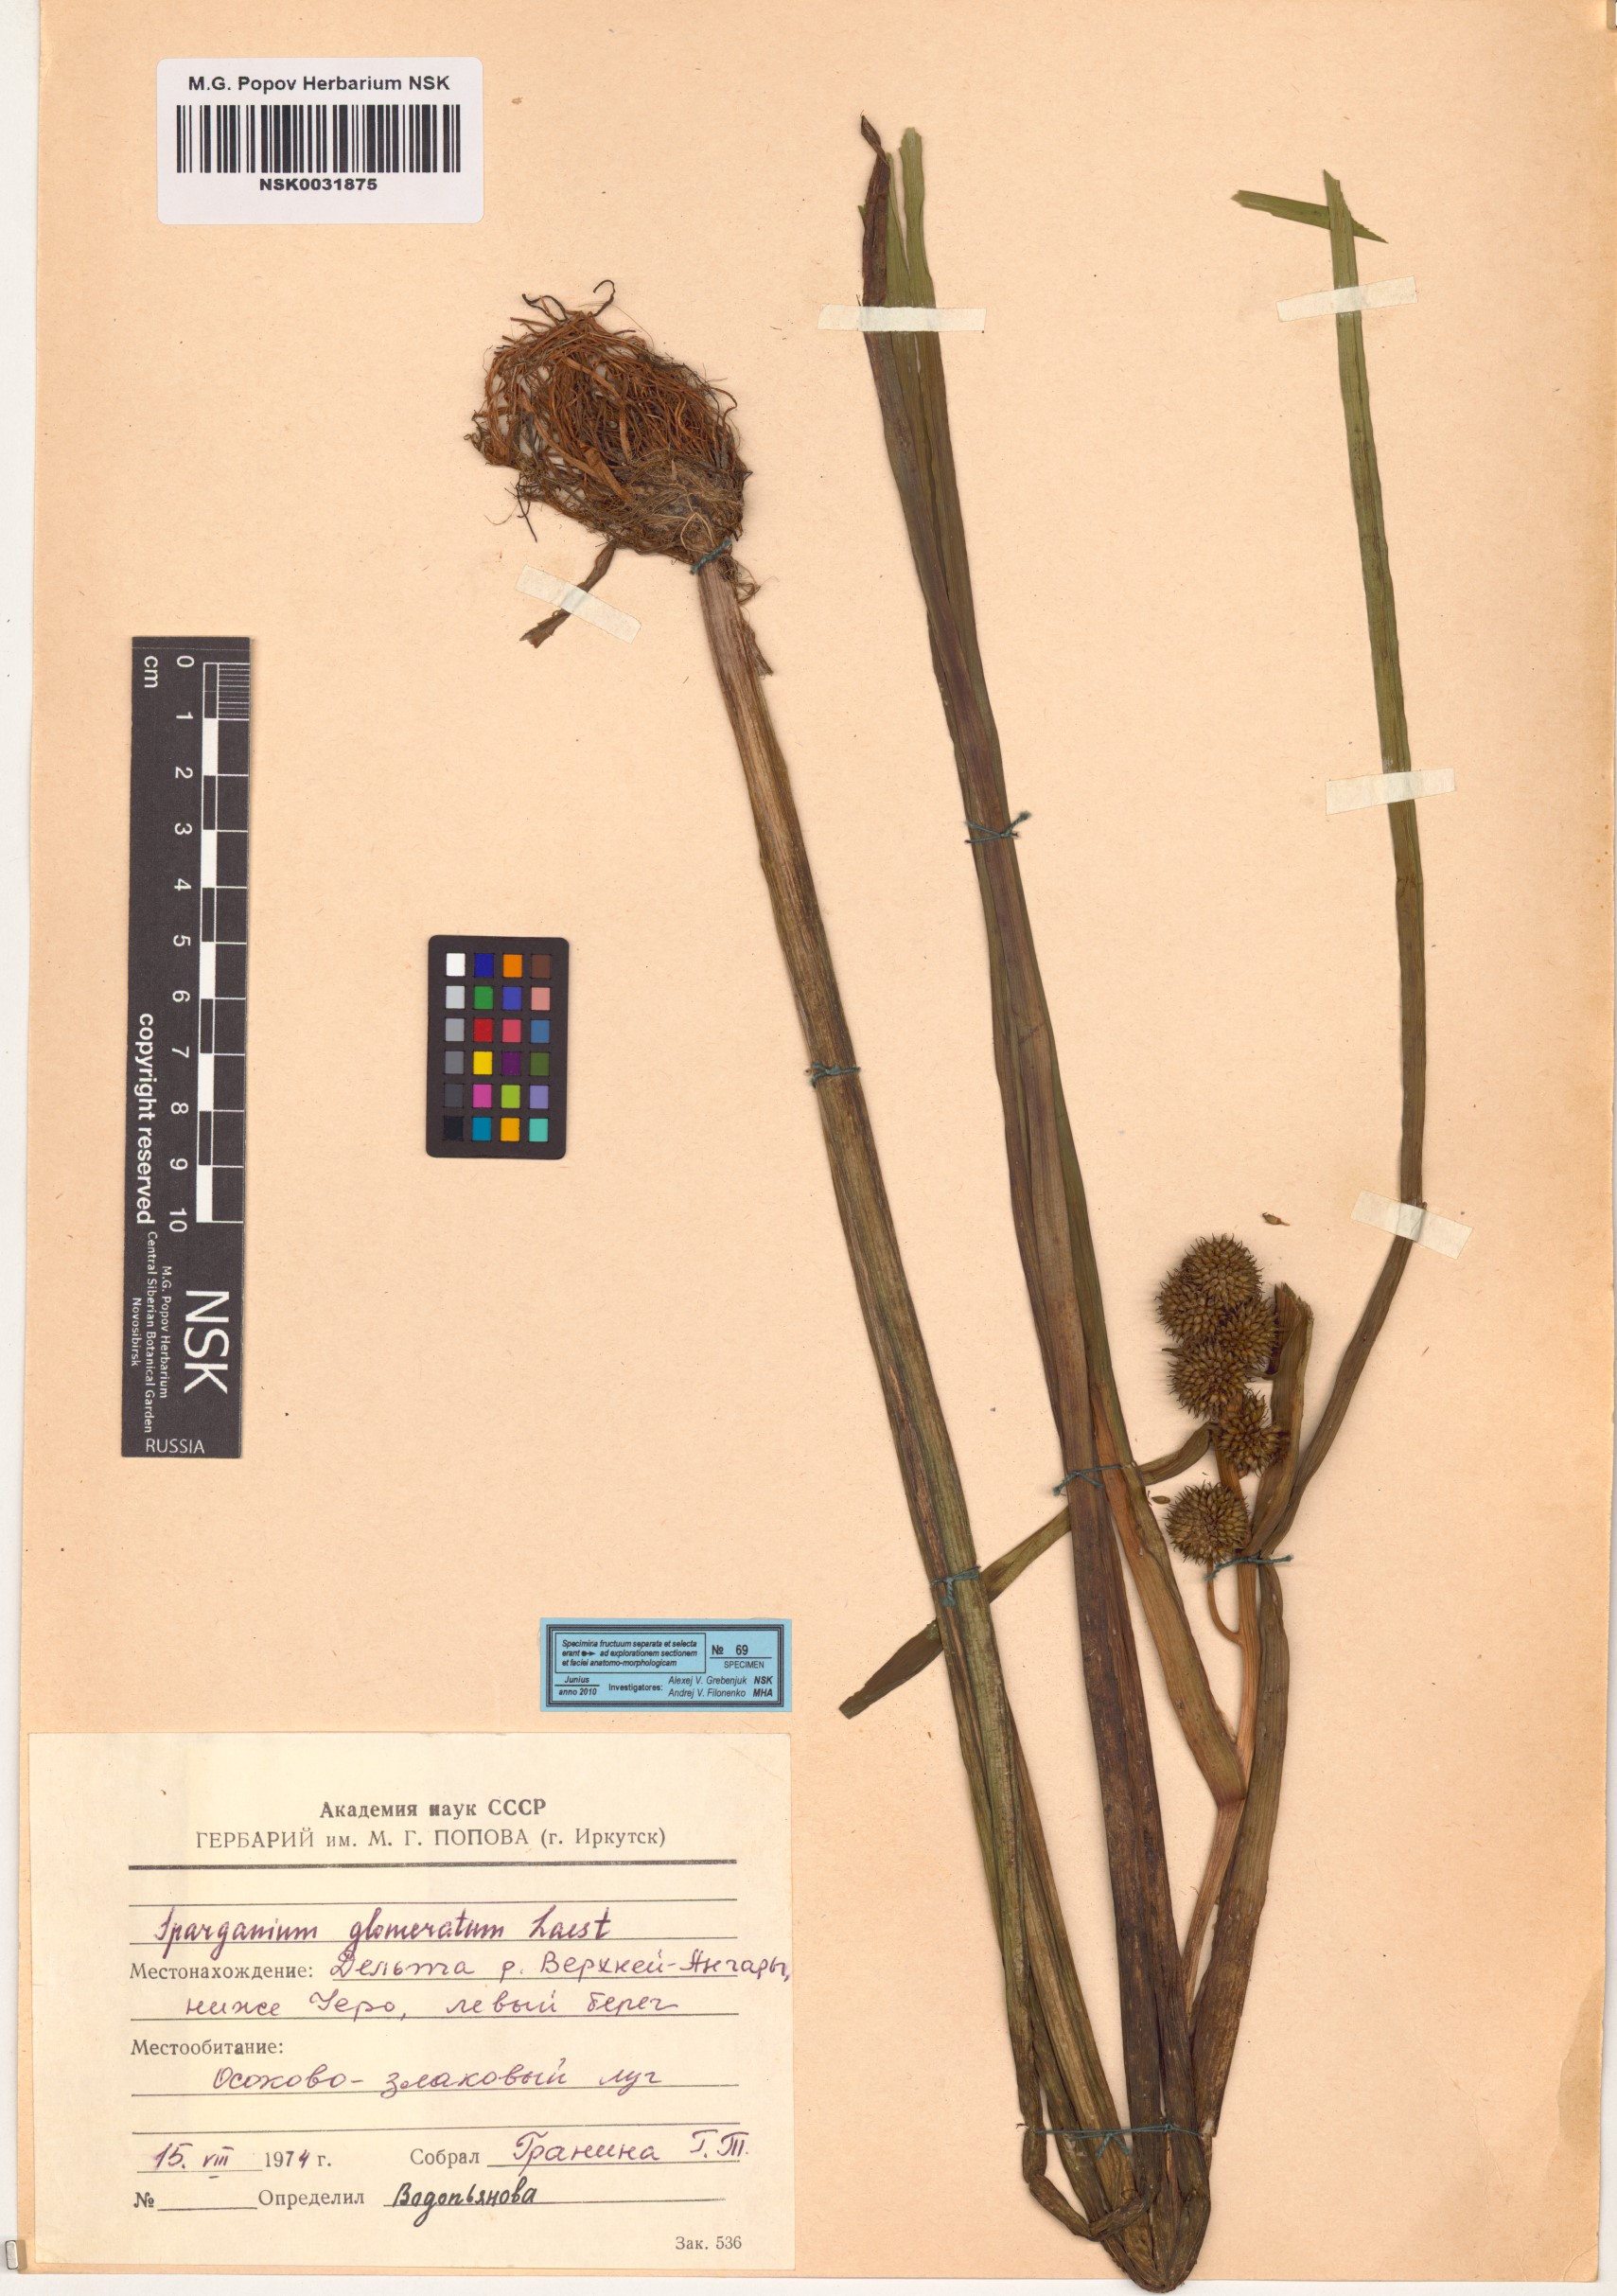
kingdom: Plantae
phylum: Tracheophyta
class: Liliopsida
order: Poales
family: Typhaceae
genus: Sparganium
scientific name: Sparganium glomeratum
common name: Clustered burreed
